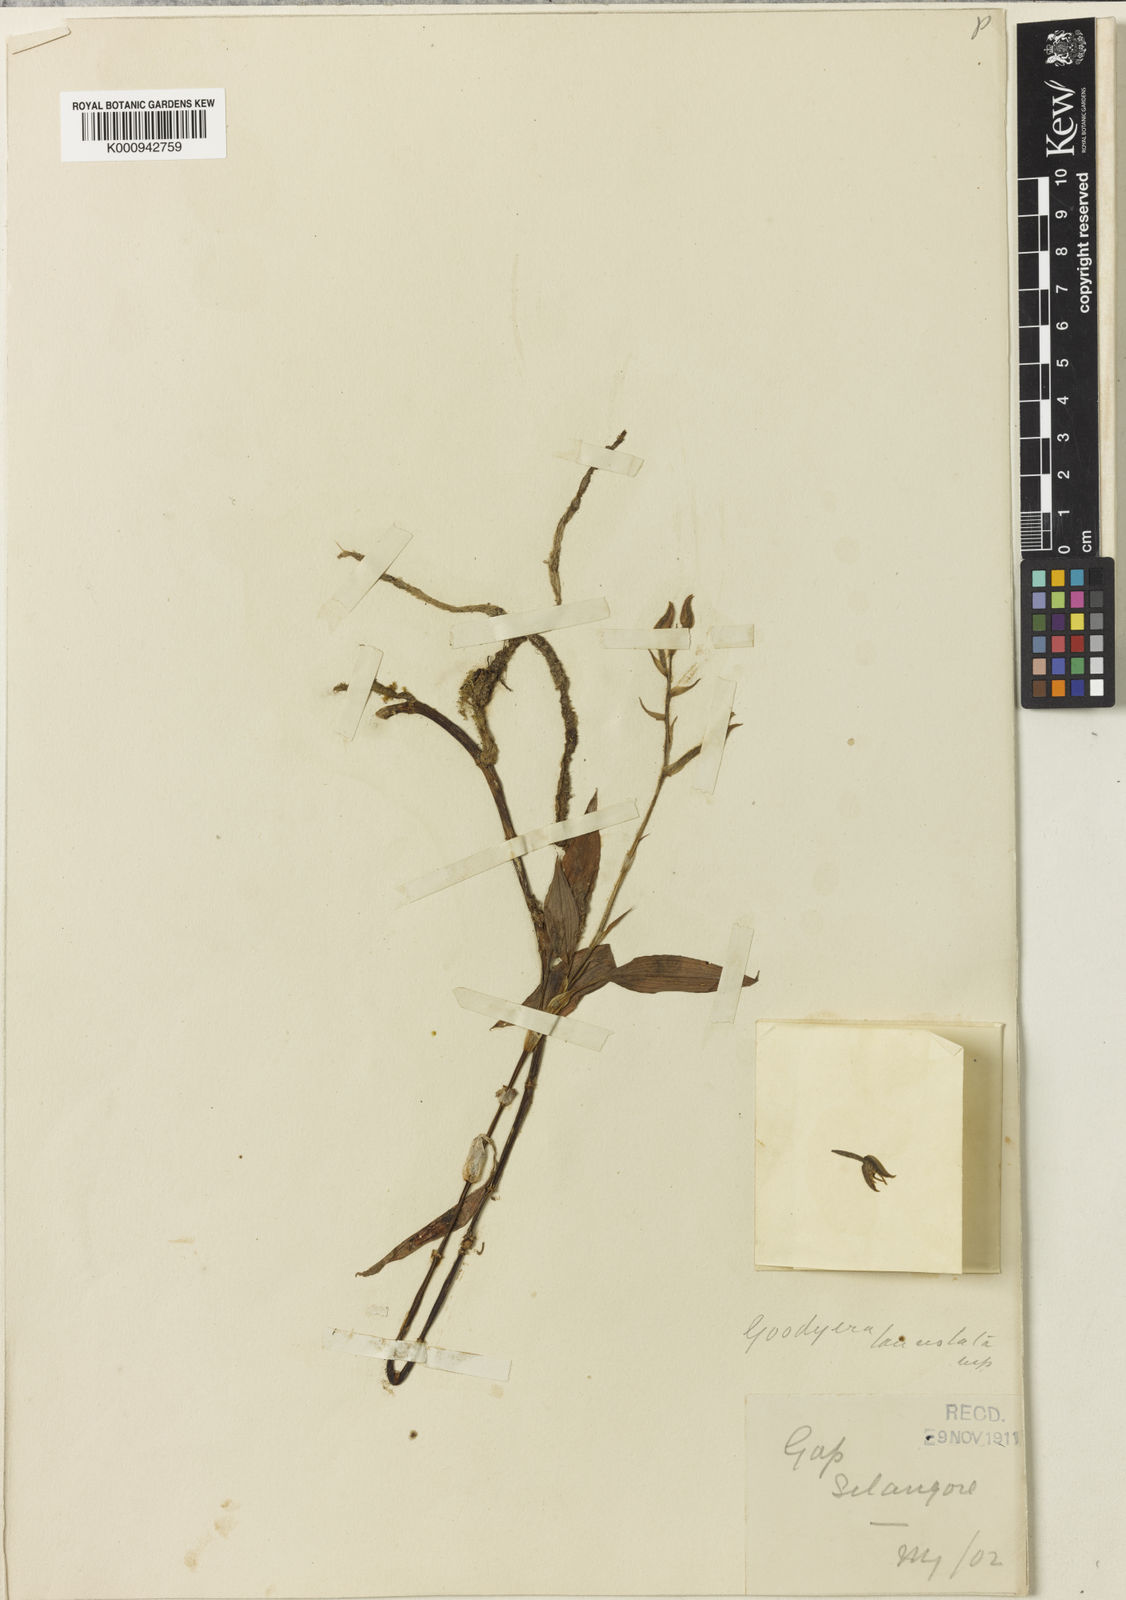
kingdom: Plantae
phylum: Tracheophyta
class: Liliopsida
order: Asparagales
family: Orchidaceae
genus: Goodyera
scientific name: Goodyera lanceolata
